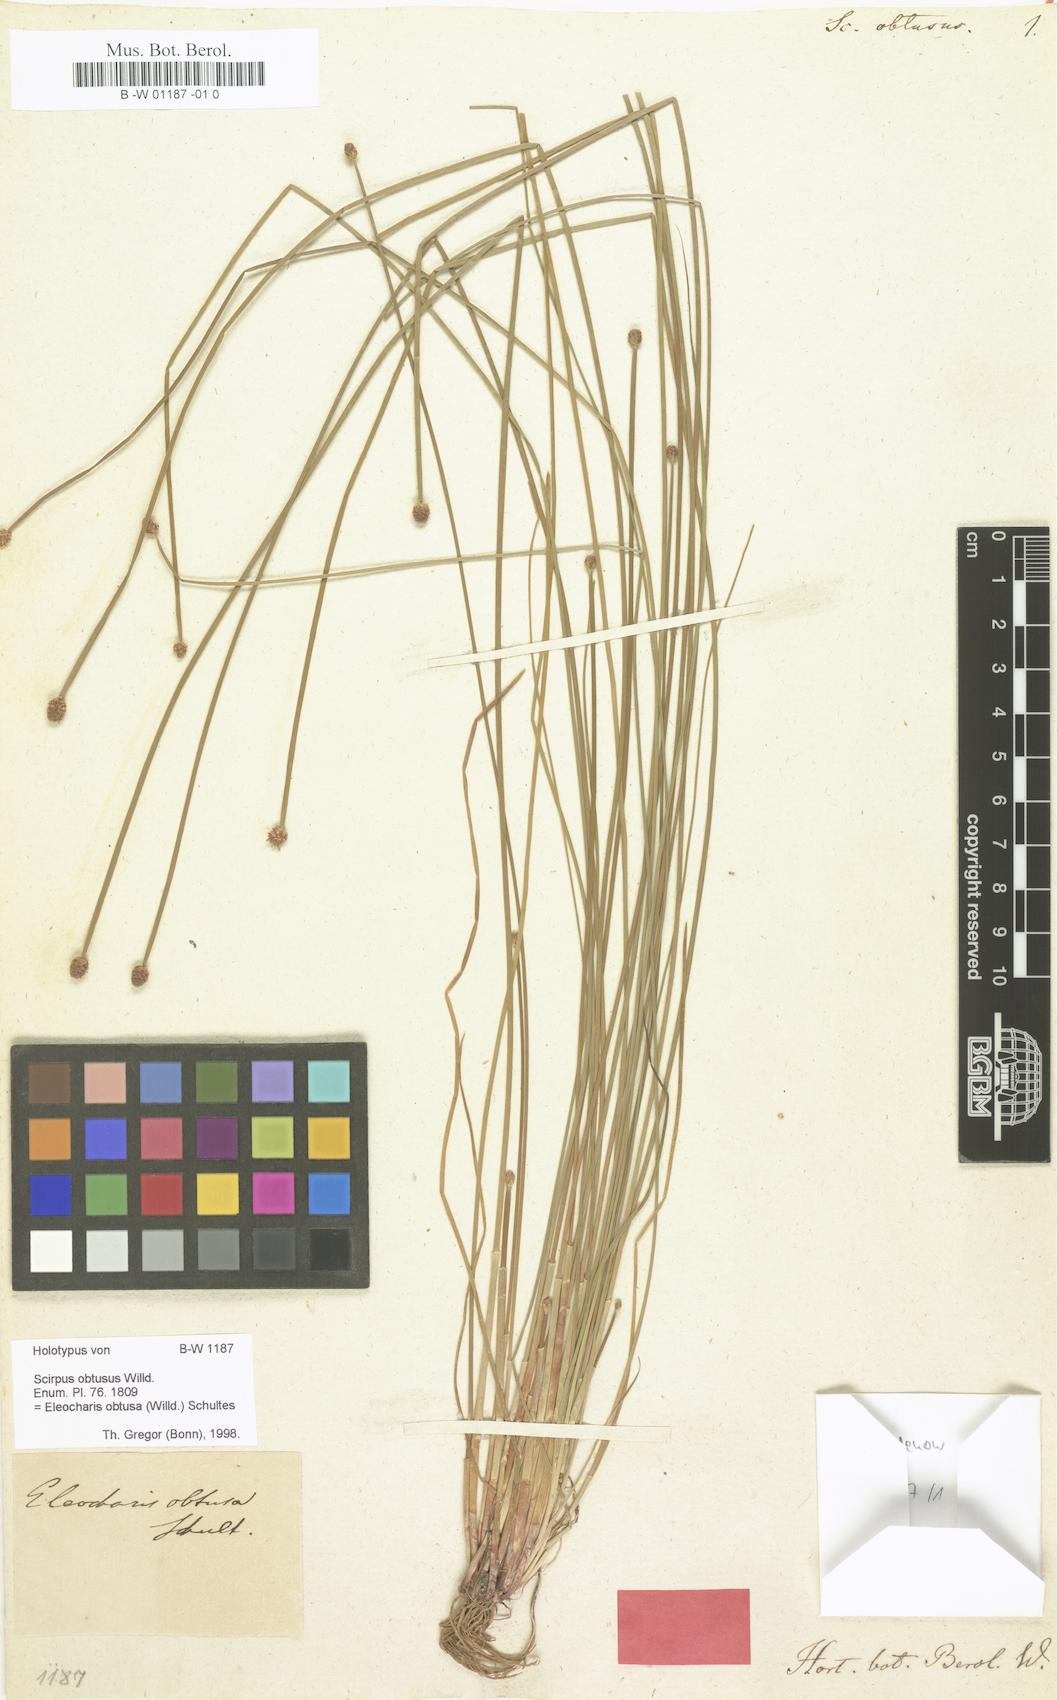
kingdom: Plantae
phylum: Tracheophyta
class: Liliopsida
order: Poales
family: Cyperaceae
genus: Eleocharis
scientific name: Eleocharis obtusa
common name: Blunt spikerush
